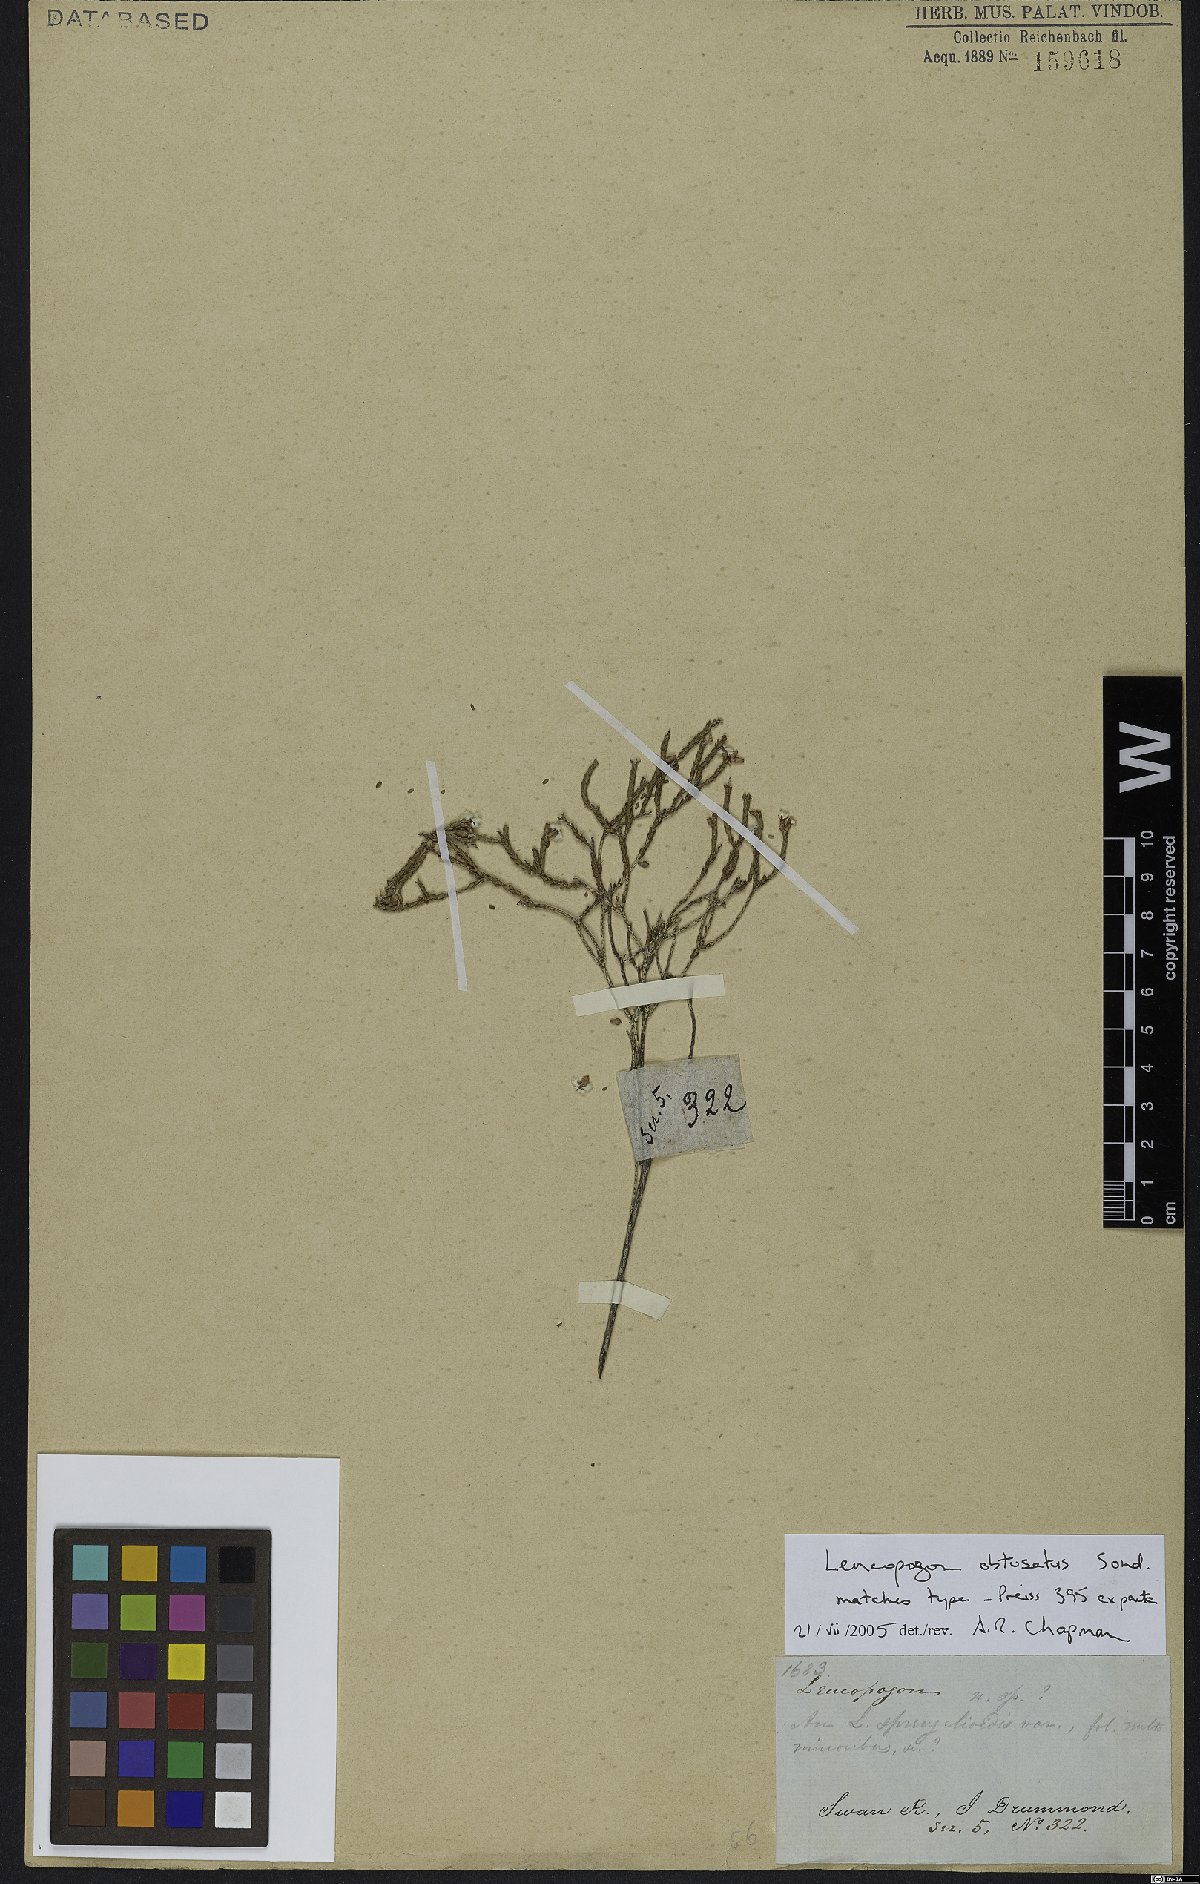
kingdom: Plantae
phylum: Tracheophyta
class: Magnoliopsida
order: Ericales
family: Ericaceae
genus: Leucopogon
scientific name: Leucopogon obtusatus
